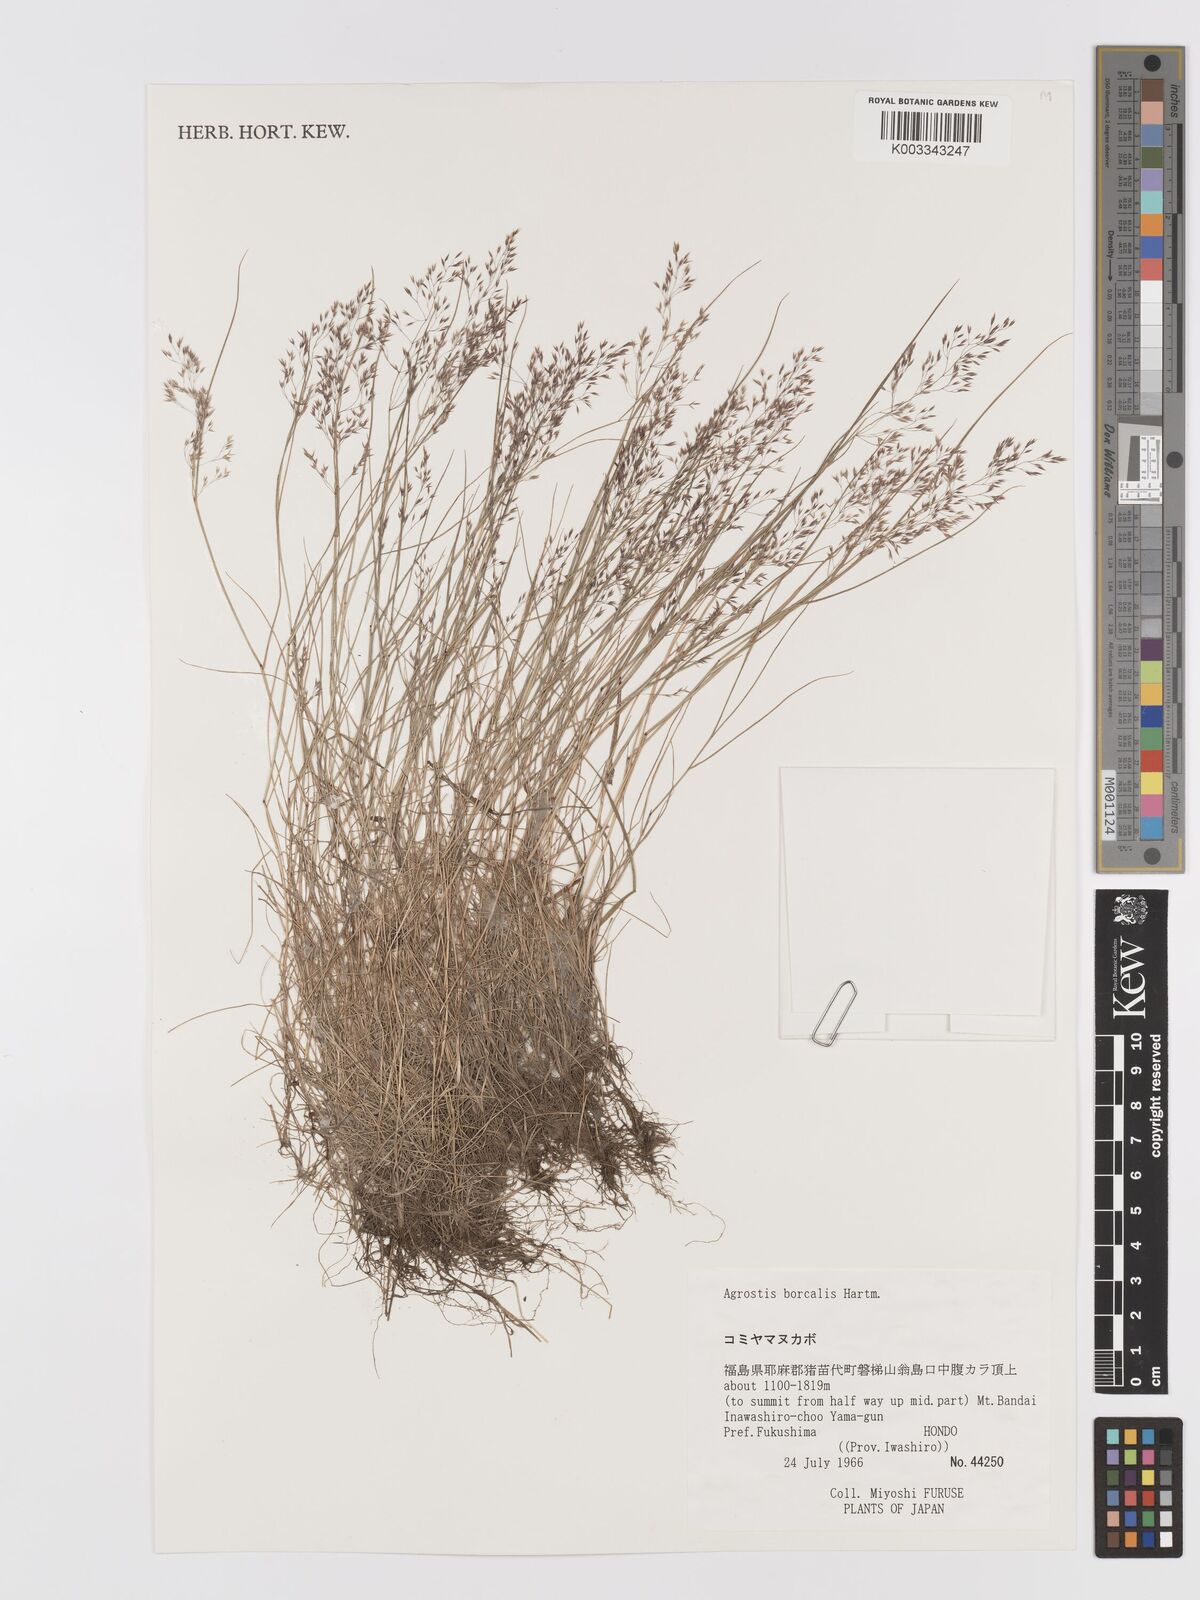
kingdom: Plantae
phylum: Tracheophyta
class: Liliopsida
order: Poales
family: Poaceae
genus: Agrostis
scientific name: Agrostis mertensii
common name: Northern bent
